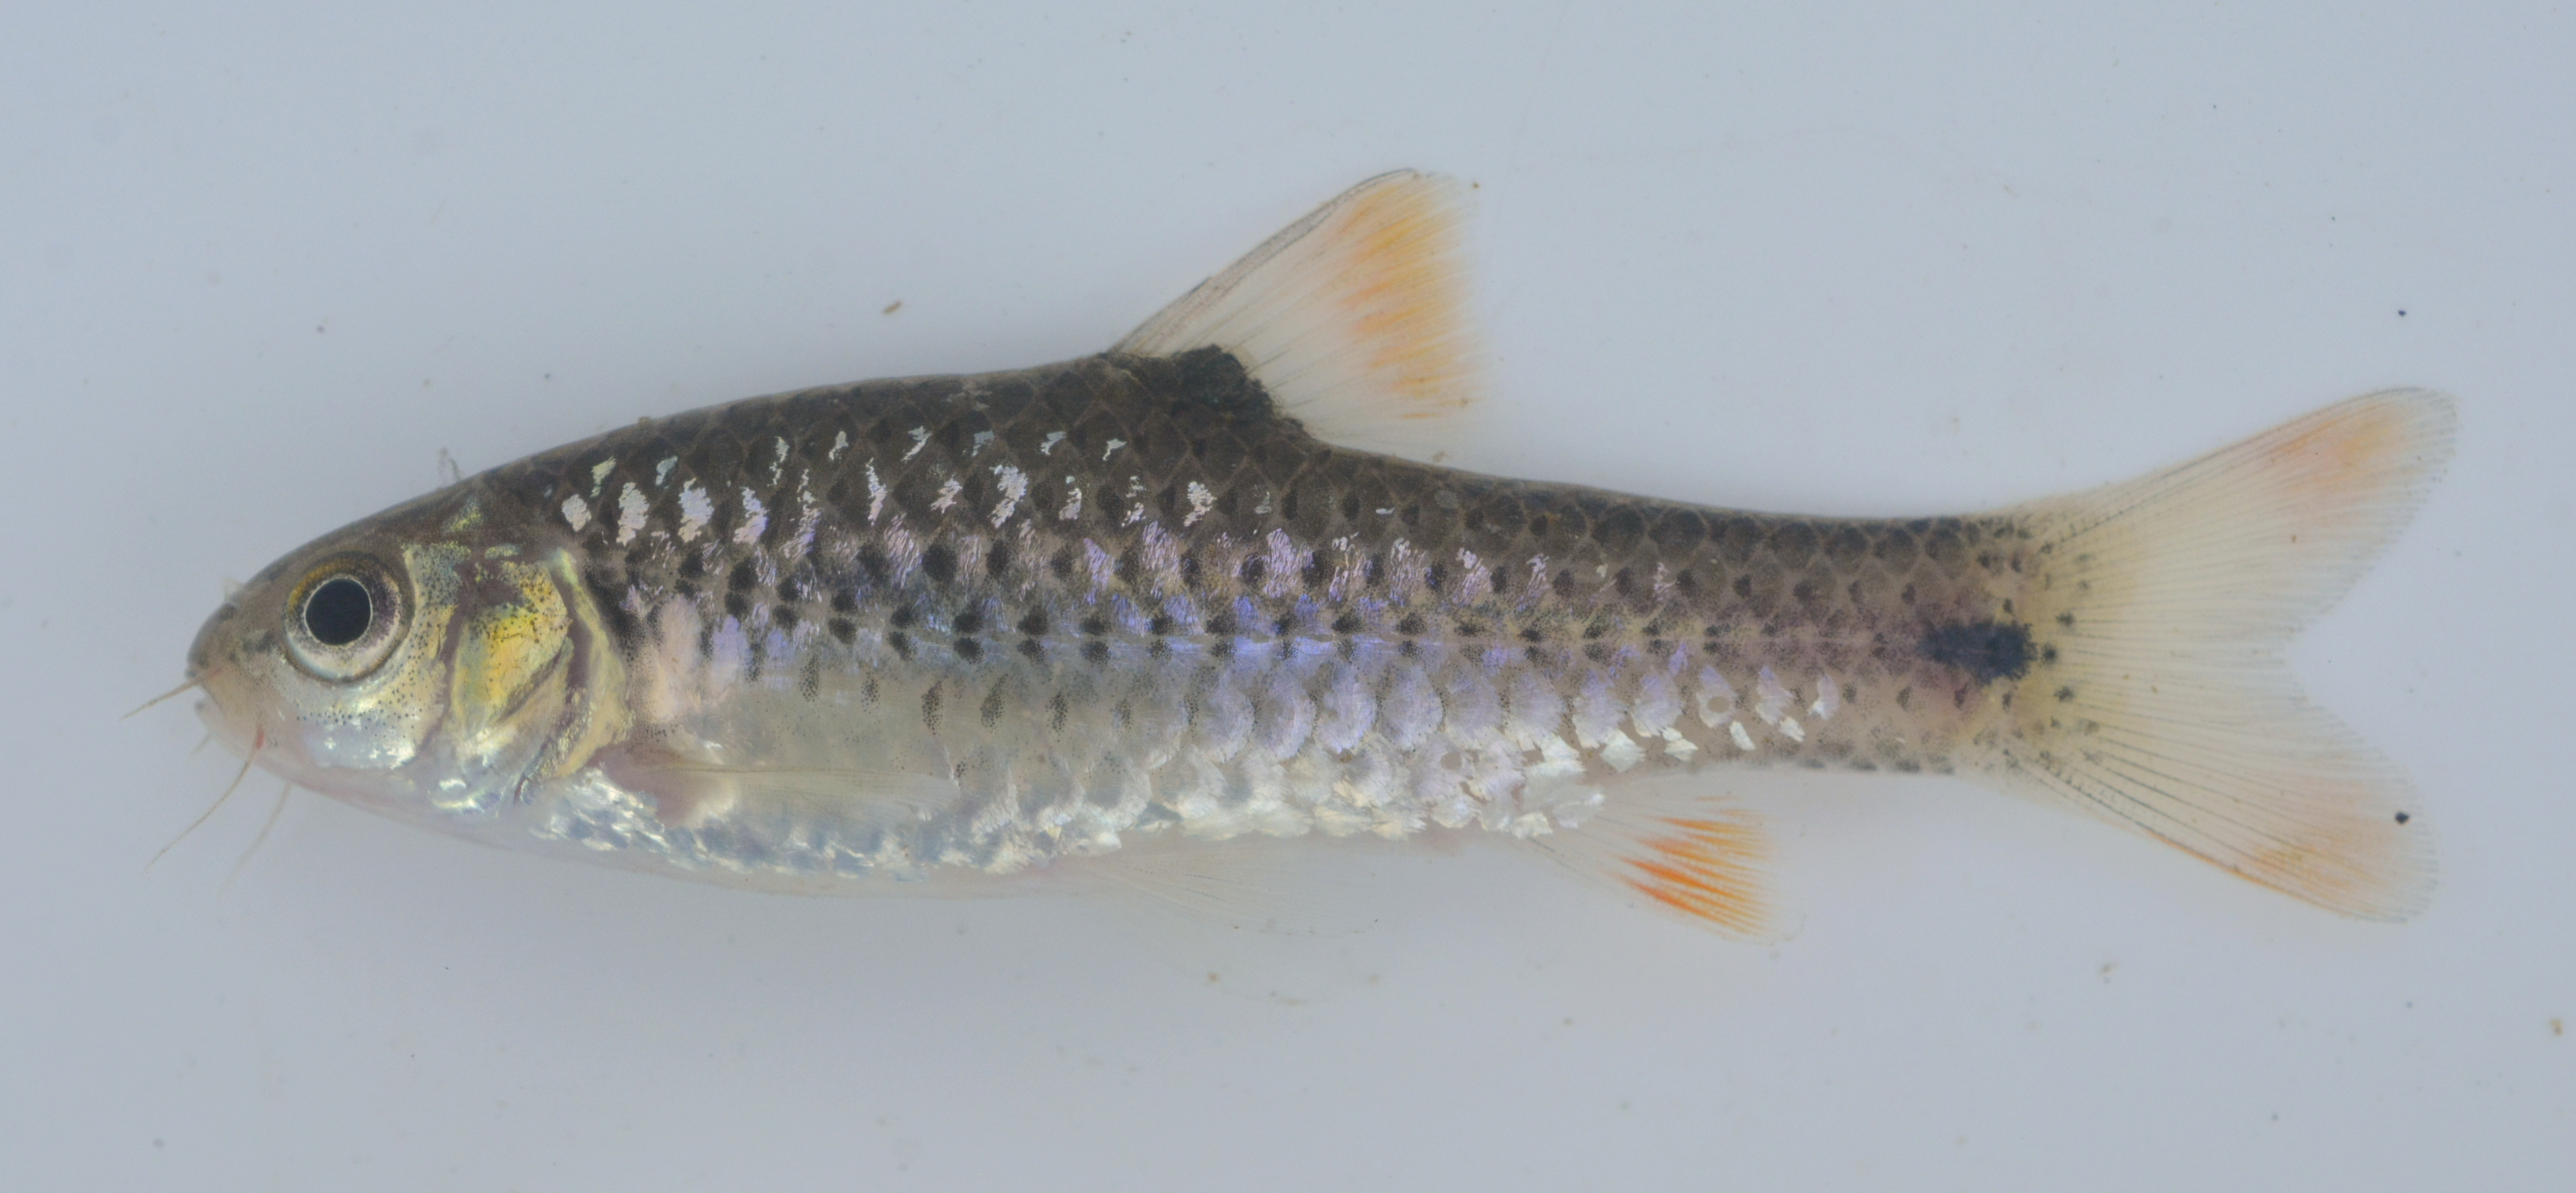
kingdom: Animalia
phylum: Chordata
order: Cypriniformes
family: Cyprinidae
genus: Enteromius
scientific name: Enteromius evansi
